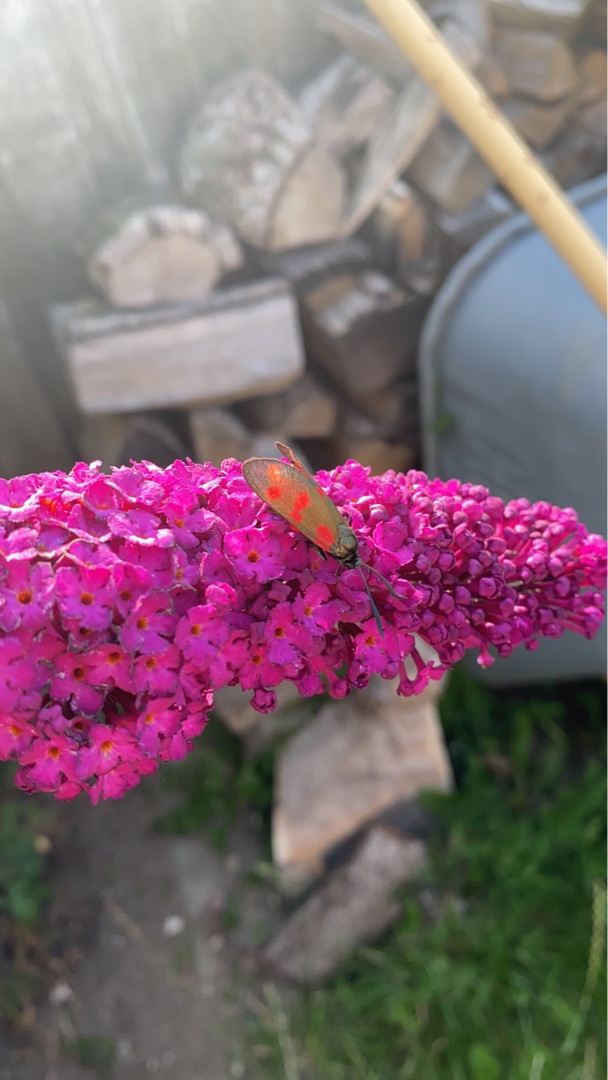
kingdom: Animalia
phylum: Arthropoda
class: Insecta
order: Lepidoptera
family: Zygaenidae
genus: Zygaena
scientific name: Zygaena filipendulae
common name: Seksplettet køllesværmer
